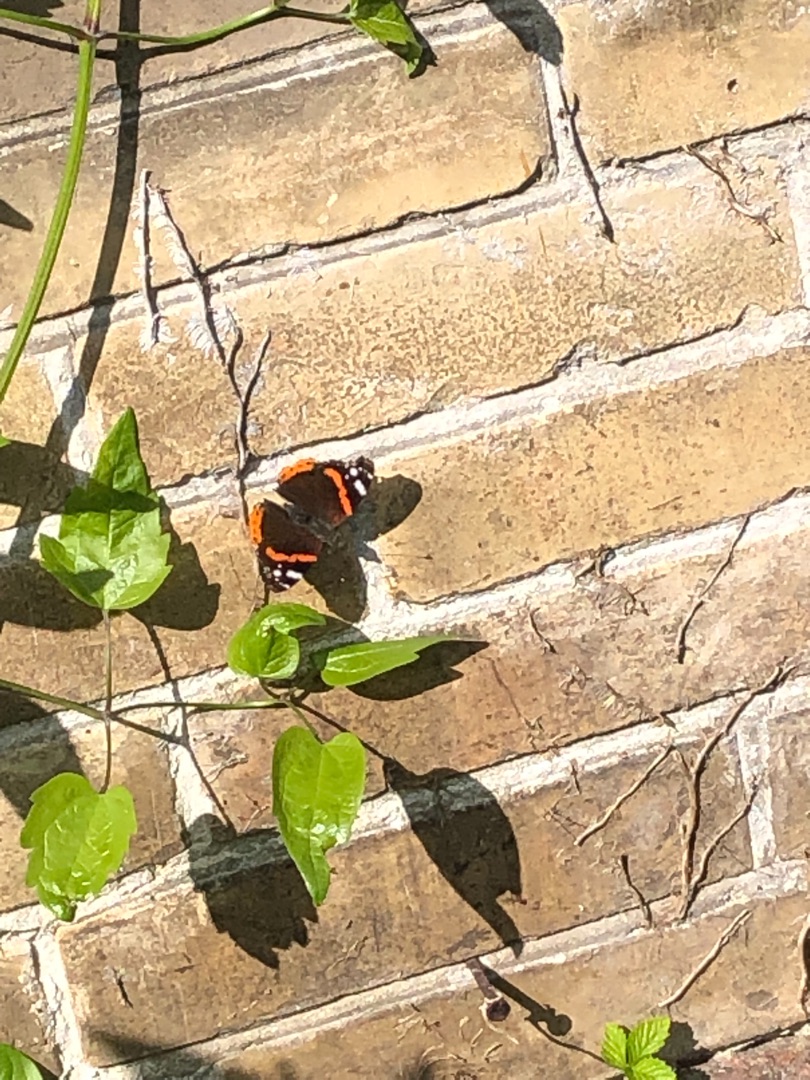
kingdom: Animalia
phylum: Arthropoda
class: Insecta
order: Lepidoptera
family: Nymphalidae
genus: Vanessa
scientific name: Vanessa atalanta
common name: Admiral
